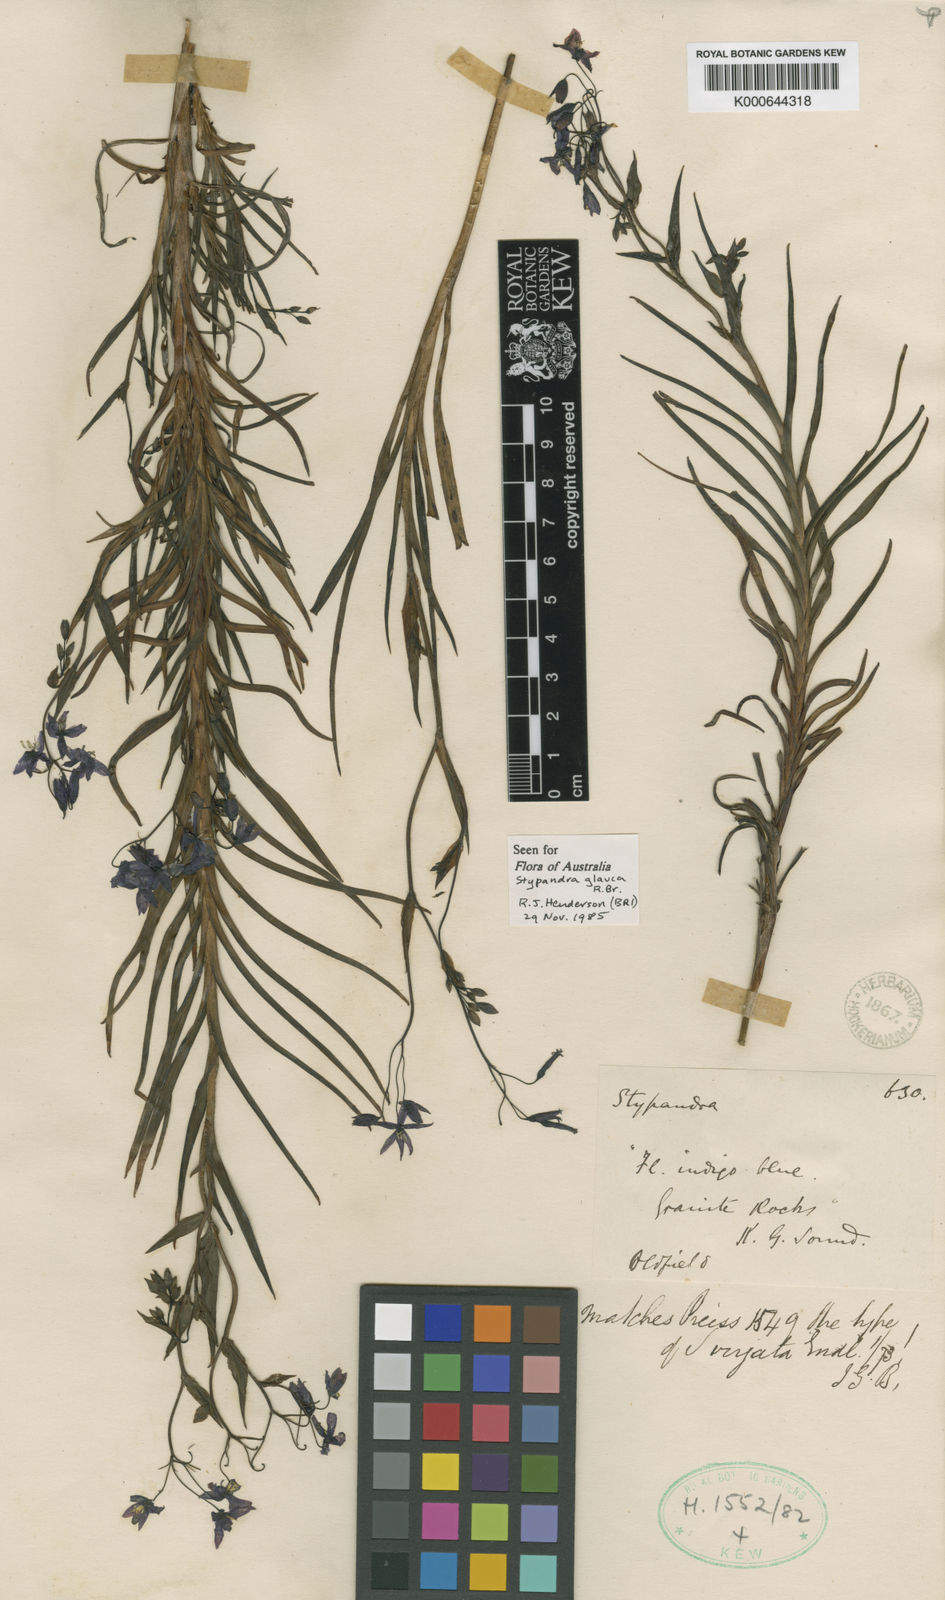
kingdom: Plantae
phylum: Tracheophyta
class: Liliopsida
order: Asparagales
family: Asphodelaceae
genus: Stypandra
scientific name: Stypandra glauca
